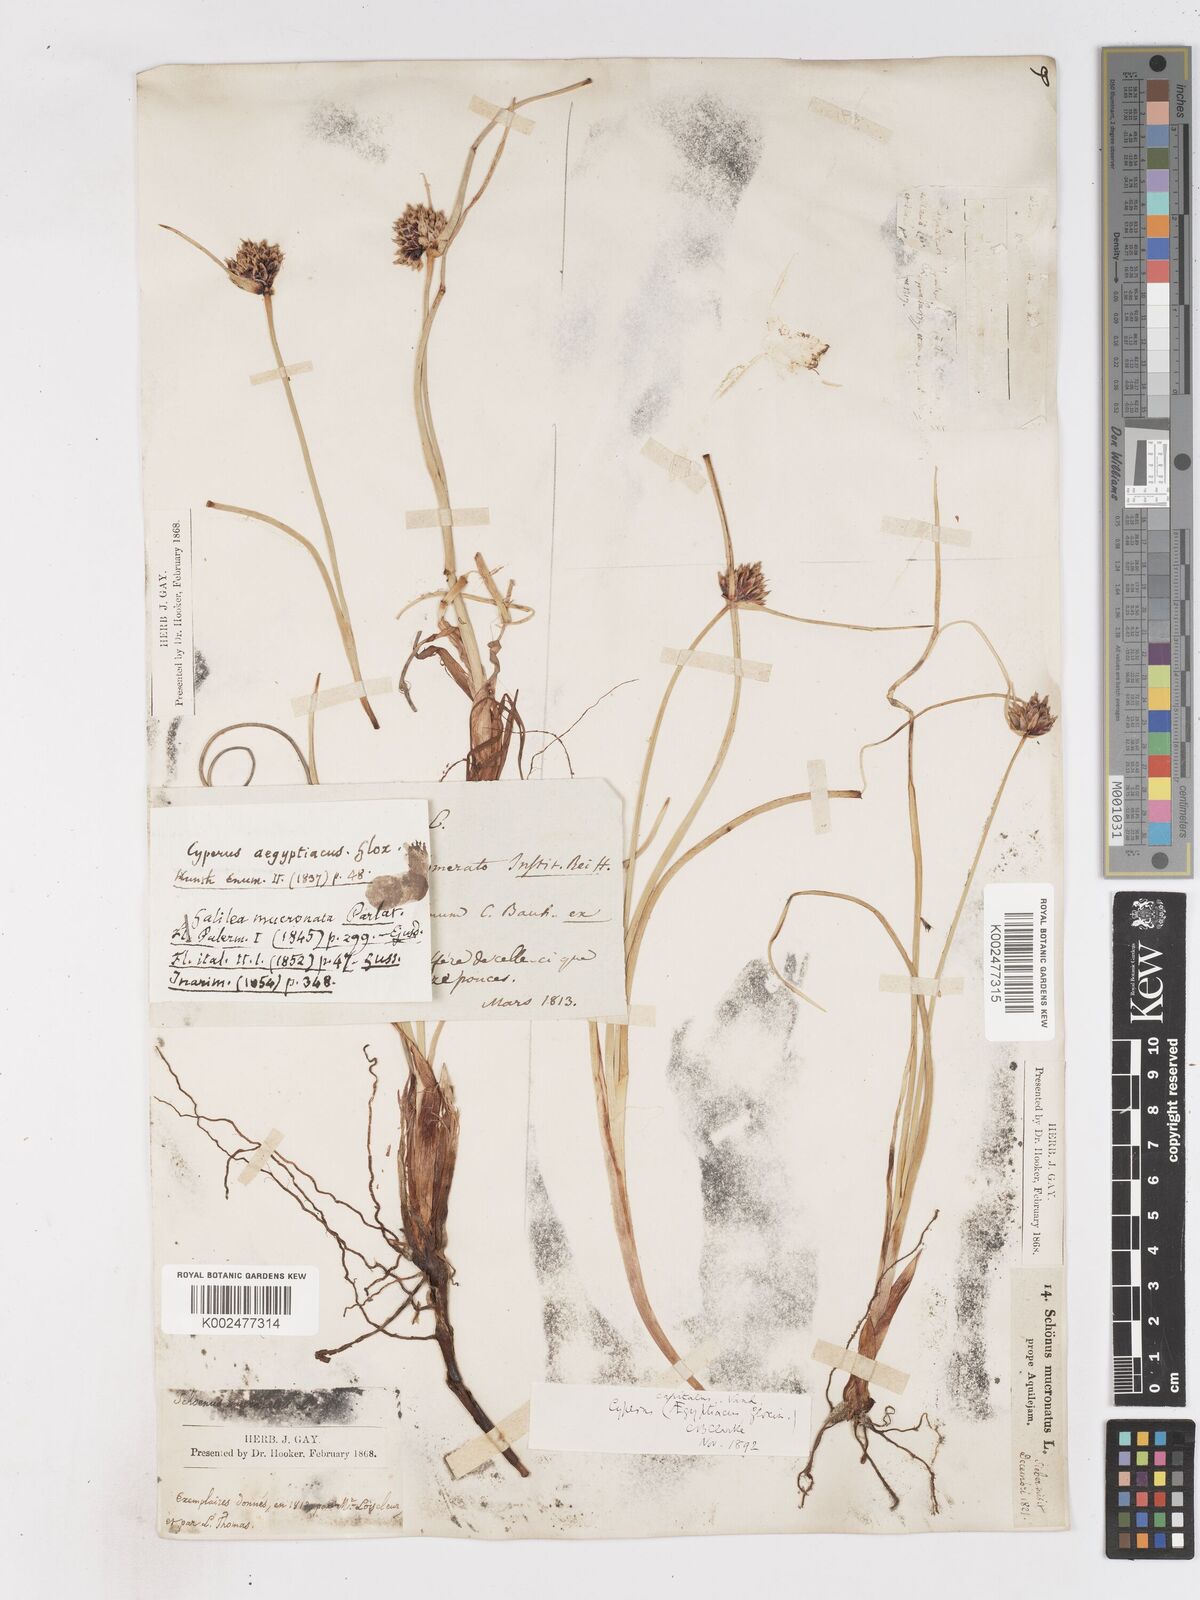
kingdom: Plantae
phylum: Tracheophyta
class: Liliopsida
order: Poales
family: Cyperaceae
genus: Cyperus
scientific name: Cyperus capitatus
